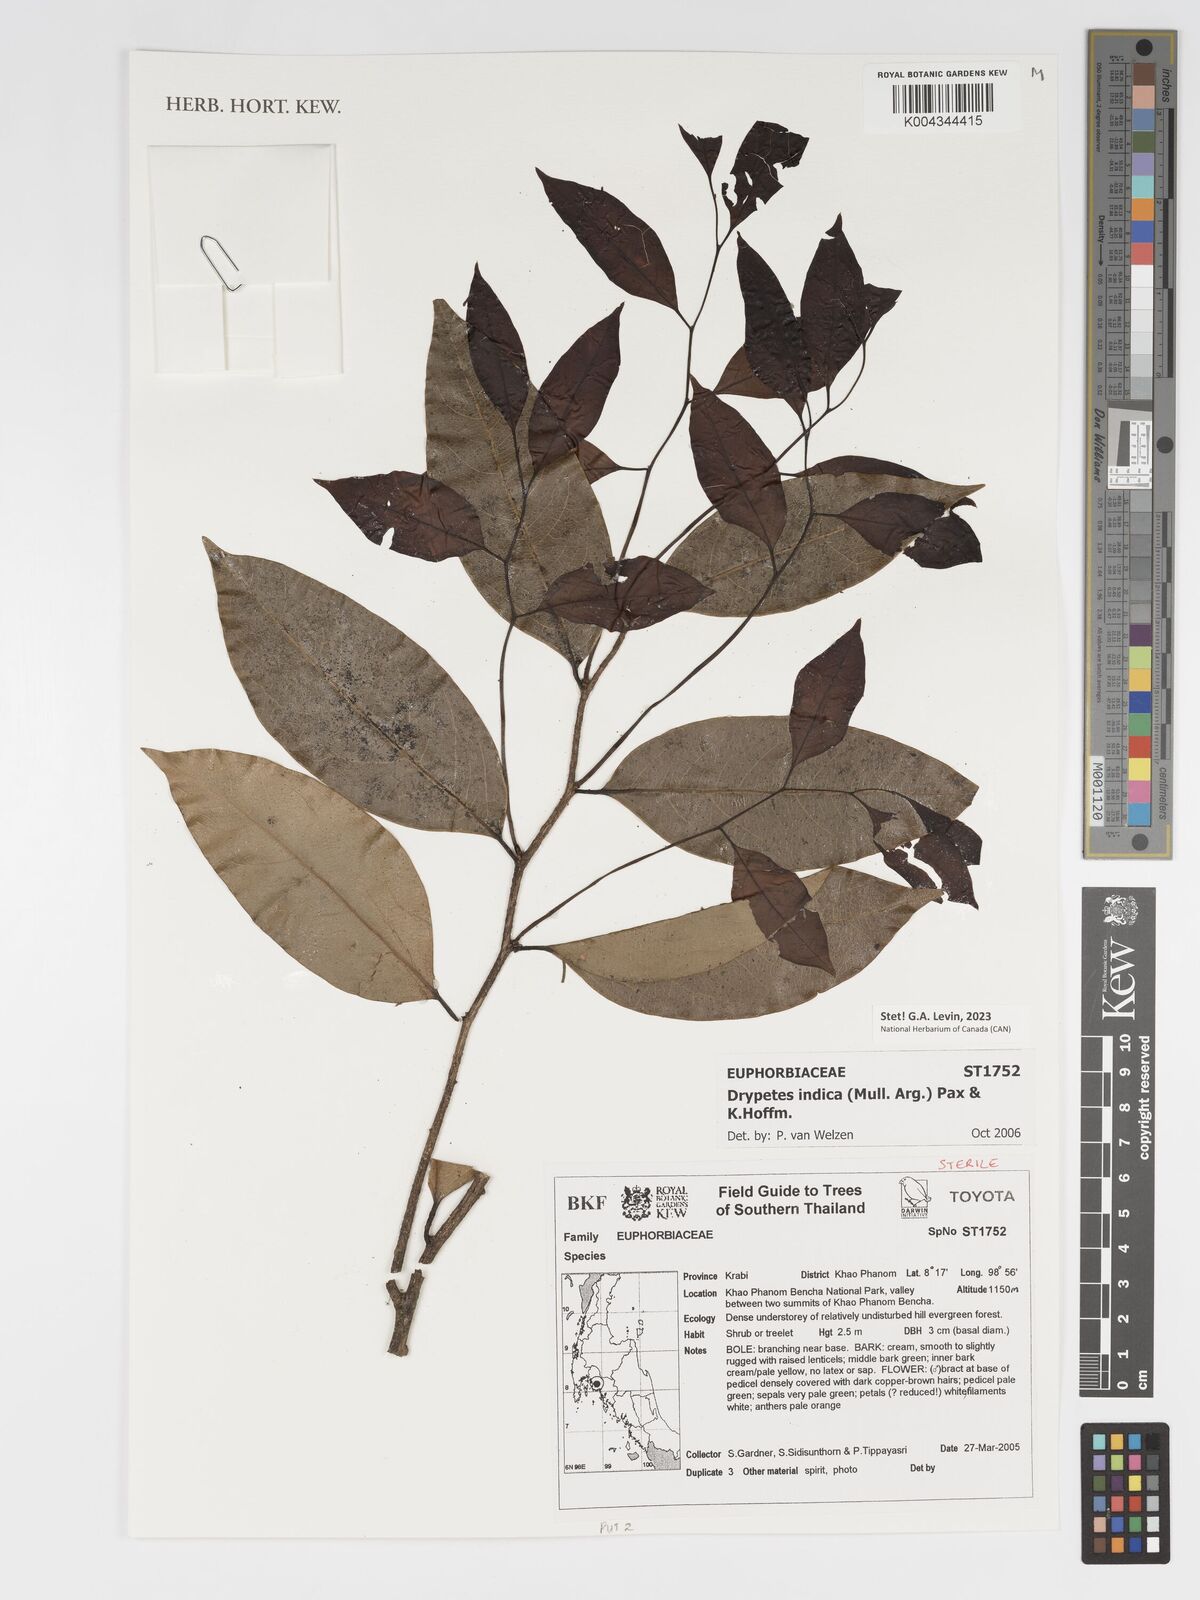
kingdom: Plantae
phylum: Tracheophyta
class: Magnoliopsida
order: Malpighiales
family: Putranjivaceae
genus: Drypetes
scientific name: Drypetes indica
